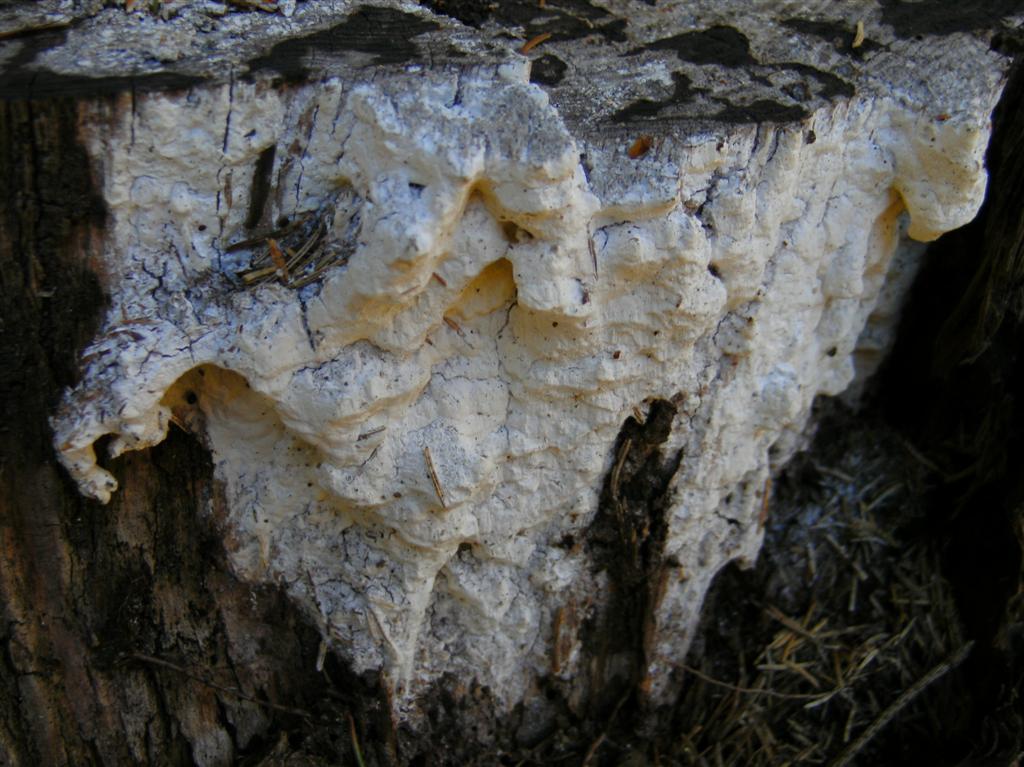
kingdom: Fungi
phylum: Basidiomycota
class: Agaricomycetes
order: Polyporales
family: Fomitopsidaceae
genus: Daedalea
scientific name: Daedalea xantha
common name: gul sejporesvamp
